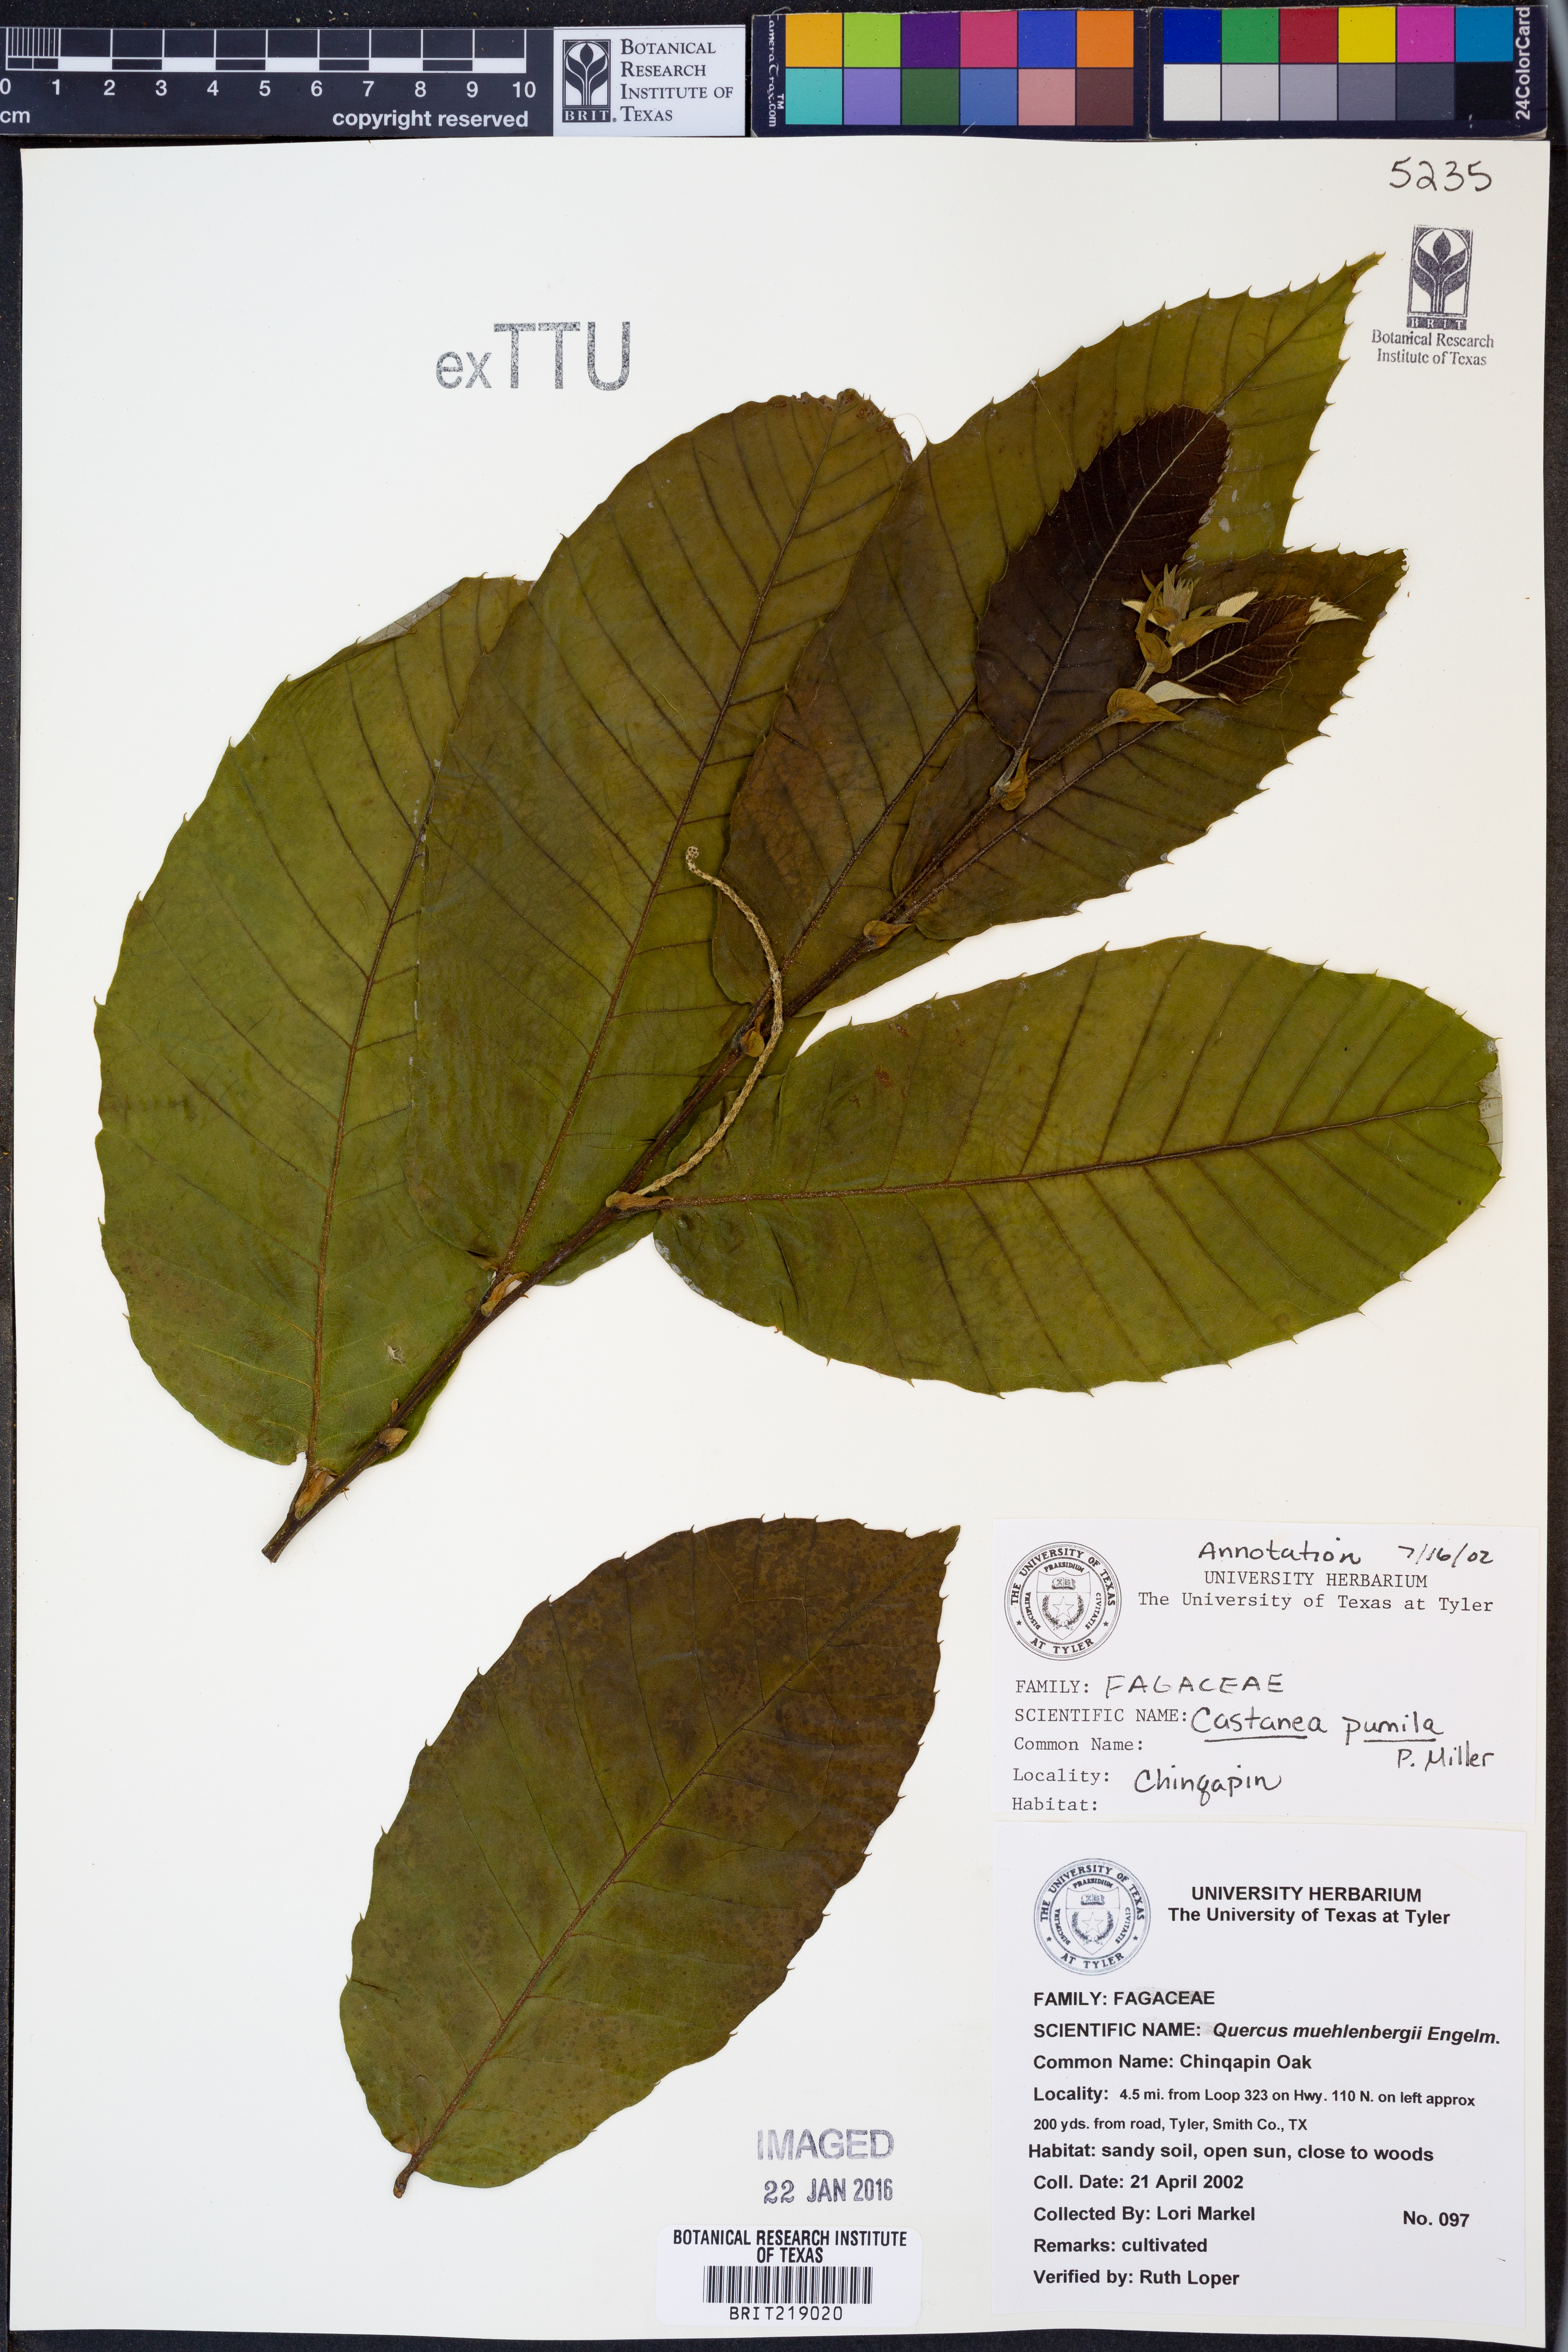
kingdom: Plantae
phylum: Tracheophyta
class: Magnoliopsida
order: Fagales
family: Fagaceae
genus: Castanea
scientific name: Castanea pumila
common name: Chinkapin
